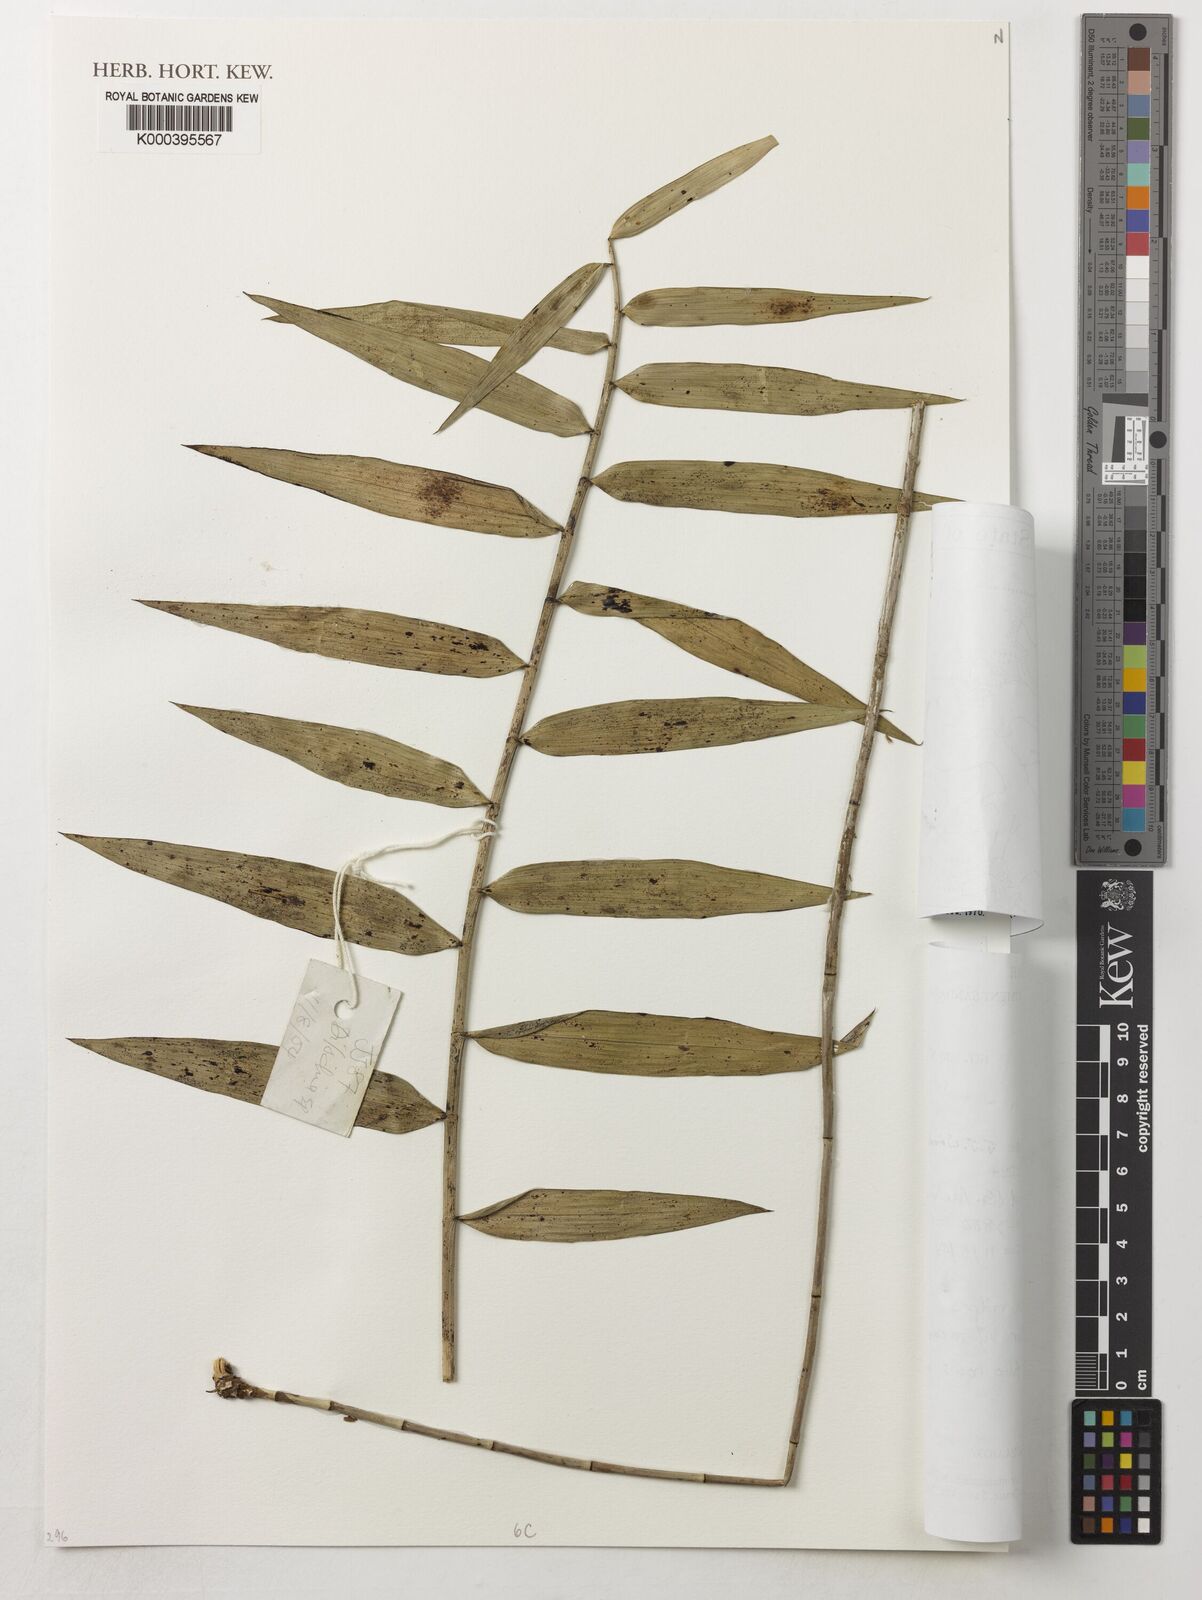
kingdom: Plantae
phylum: Tracheophyta
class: Liliopsida
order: Asparagales
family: Orchidaceae
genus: Dendrobium
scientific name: Dendrobium
